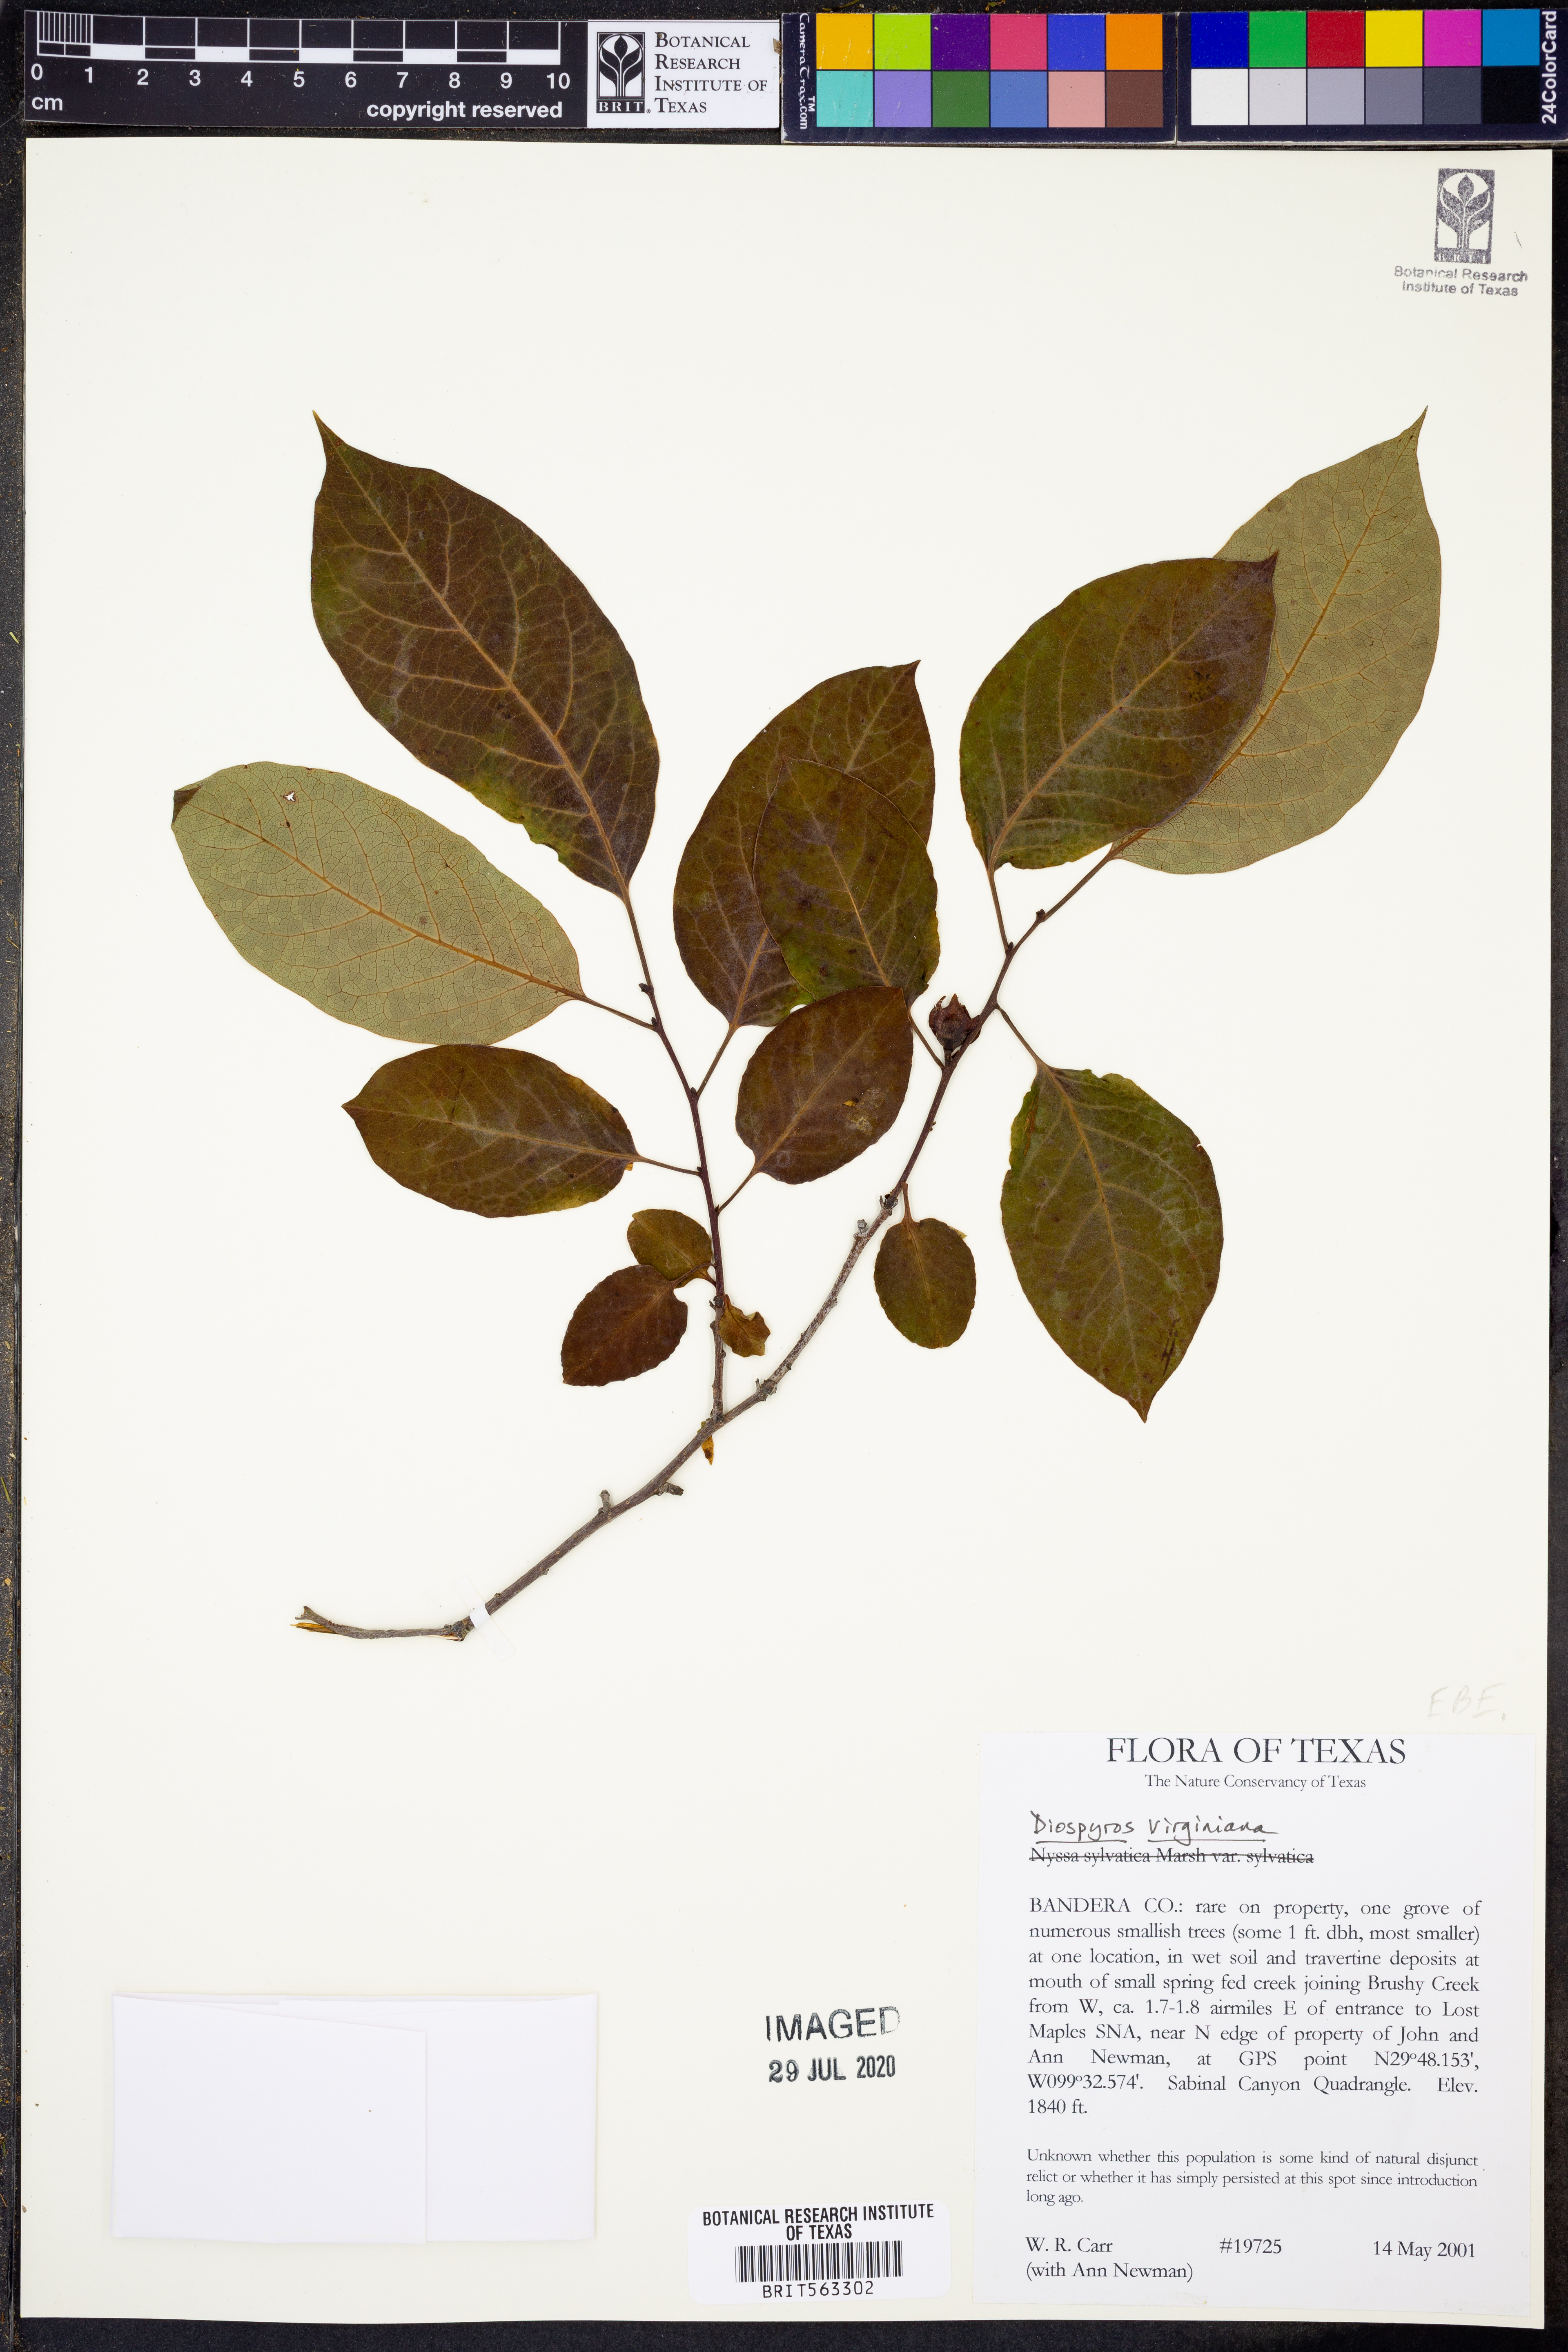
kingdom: Plantae
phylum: Tracheophyta
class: Magnoliopsida
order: Ericales
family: Ebenaceae
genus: Diospyros
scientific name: Diospyros virginiana
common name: Persimmon
